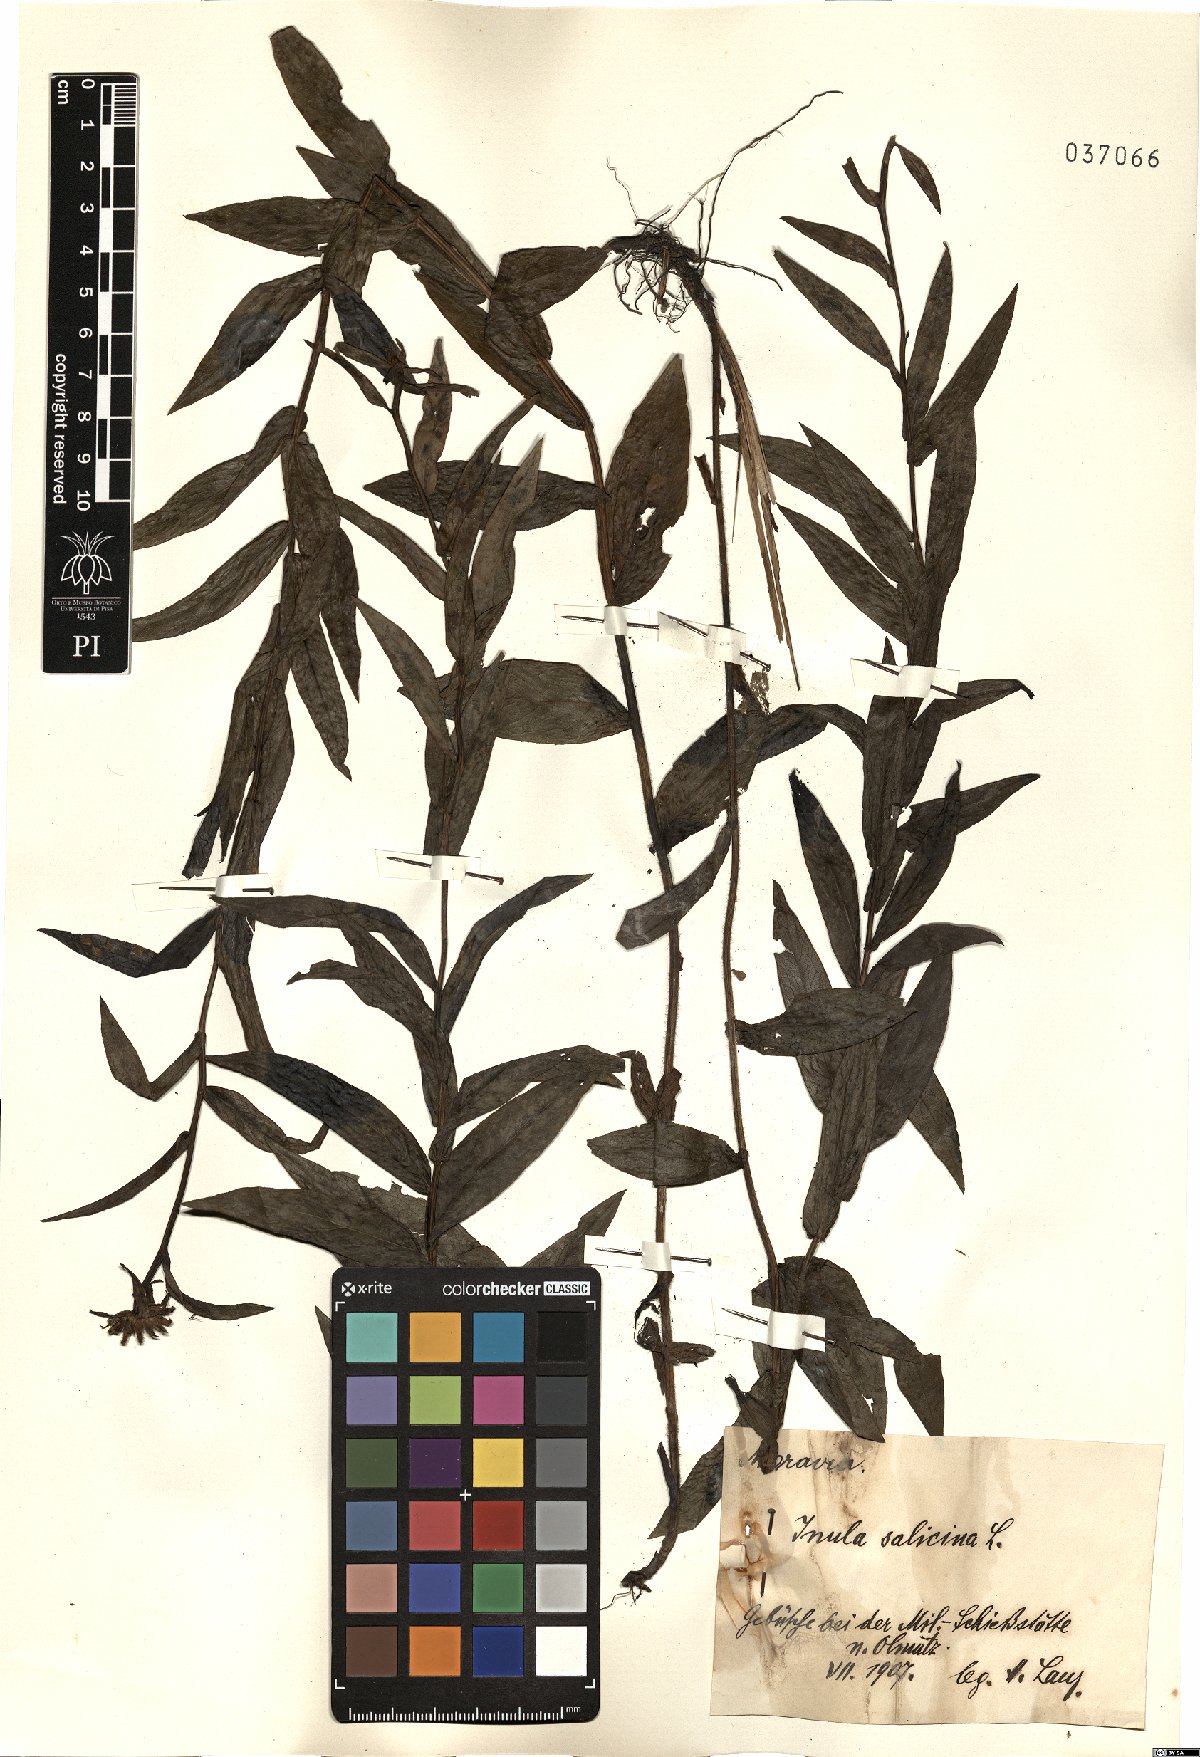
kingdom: Plantae
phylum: Tracheophyta
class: Magnoliopsida
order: Asterales
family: Asteraceae
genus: Pentanema
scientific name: Pentanema salicinum
